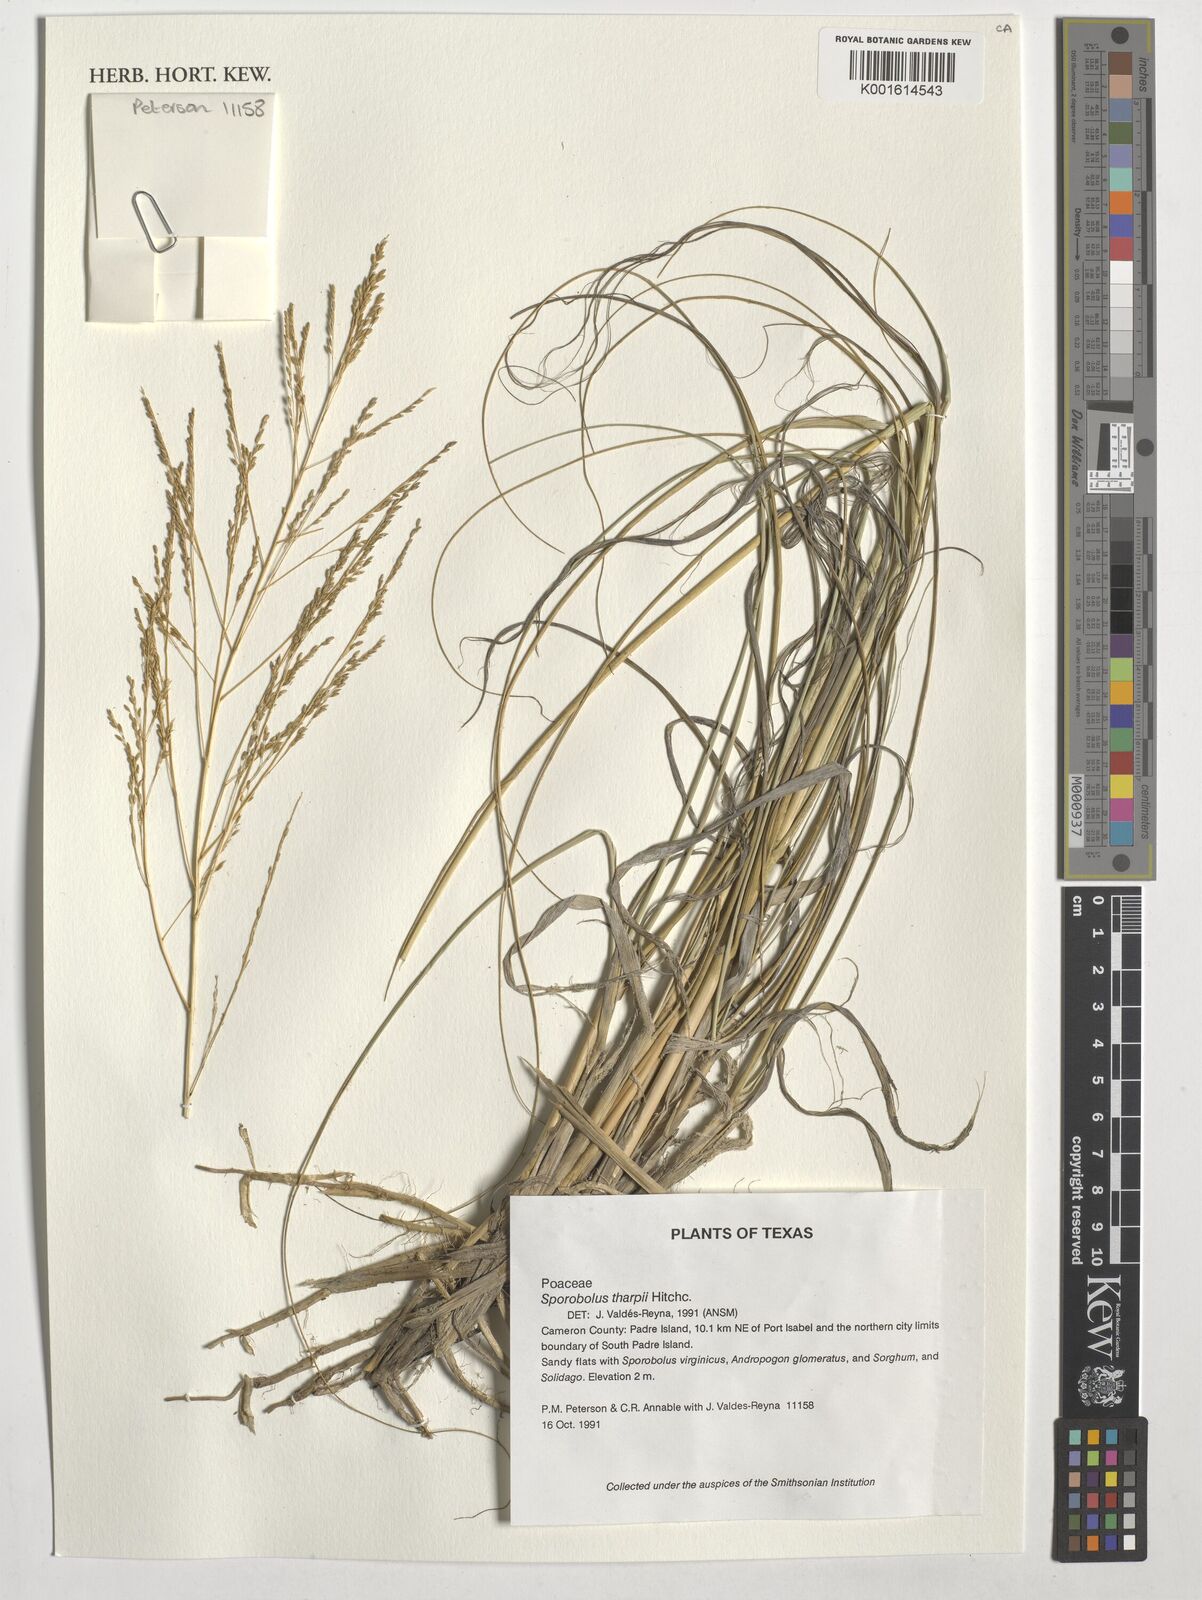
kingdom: Plantae
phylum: Tracheophyta
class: Liliopsida
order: Poales
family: Poaceae
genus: Sporobolus
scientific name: Sporobolus airoides
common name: Alkali sacaton
